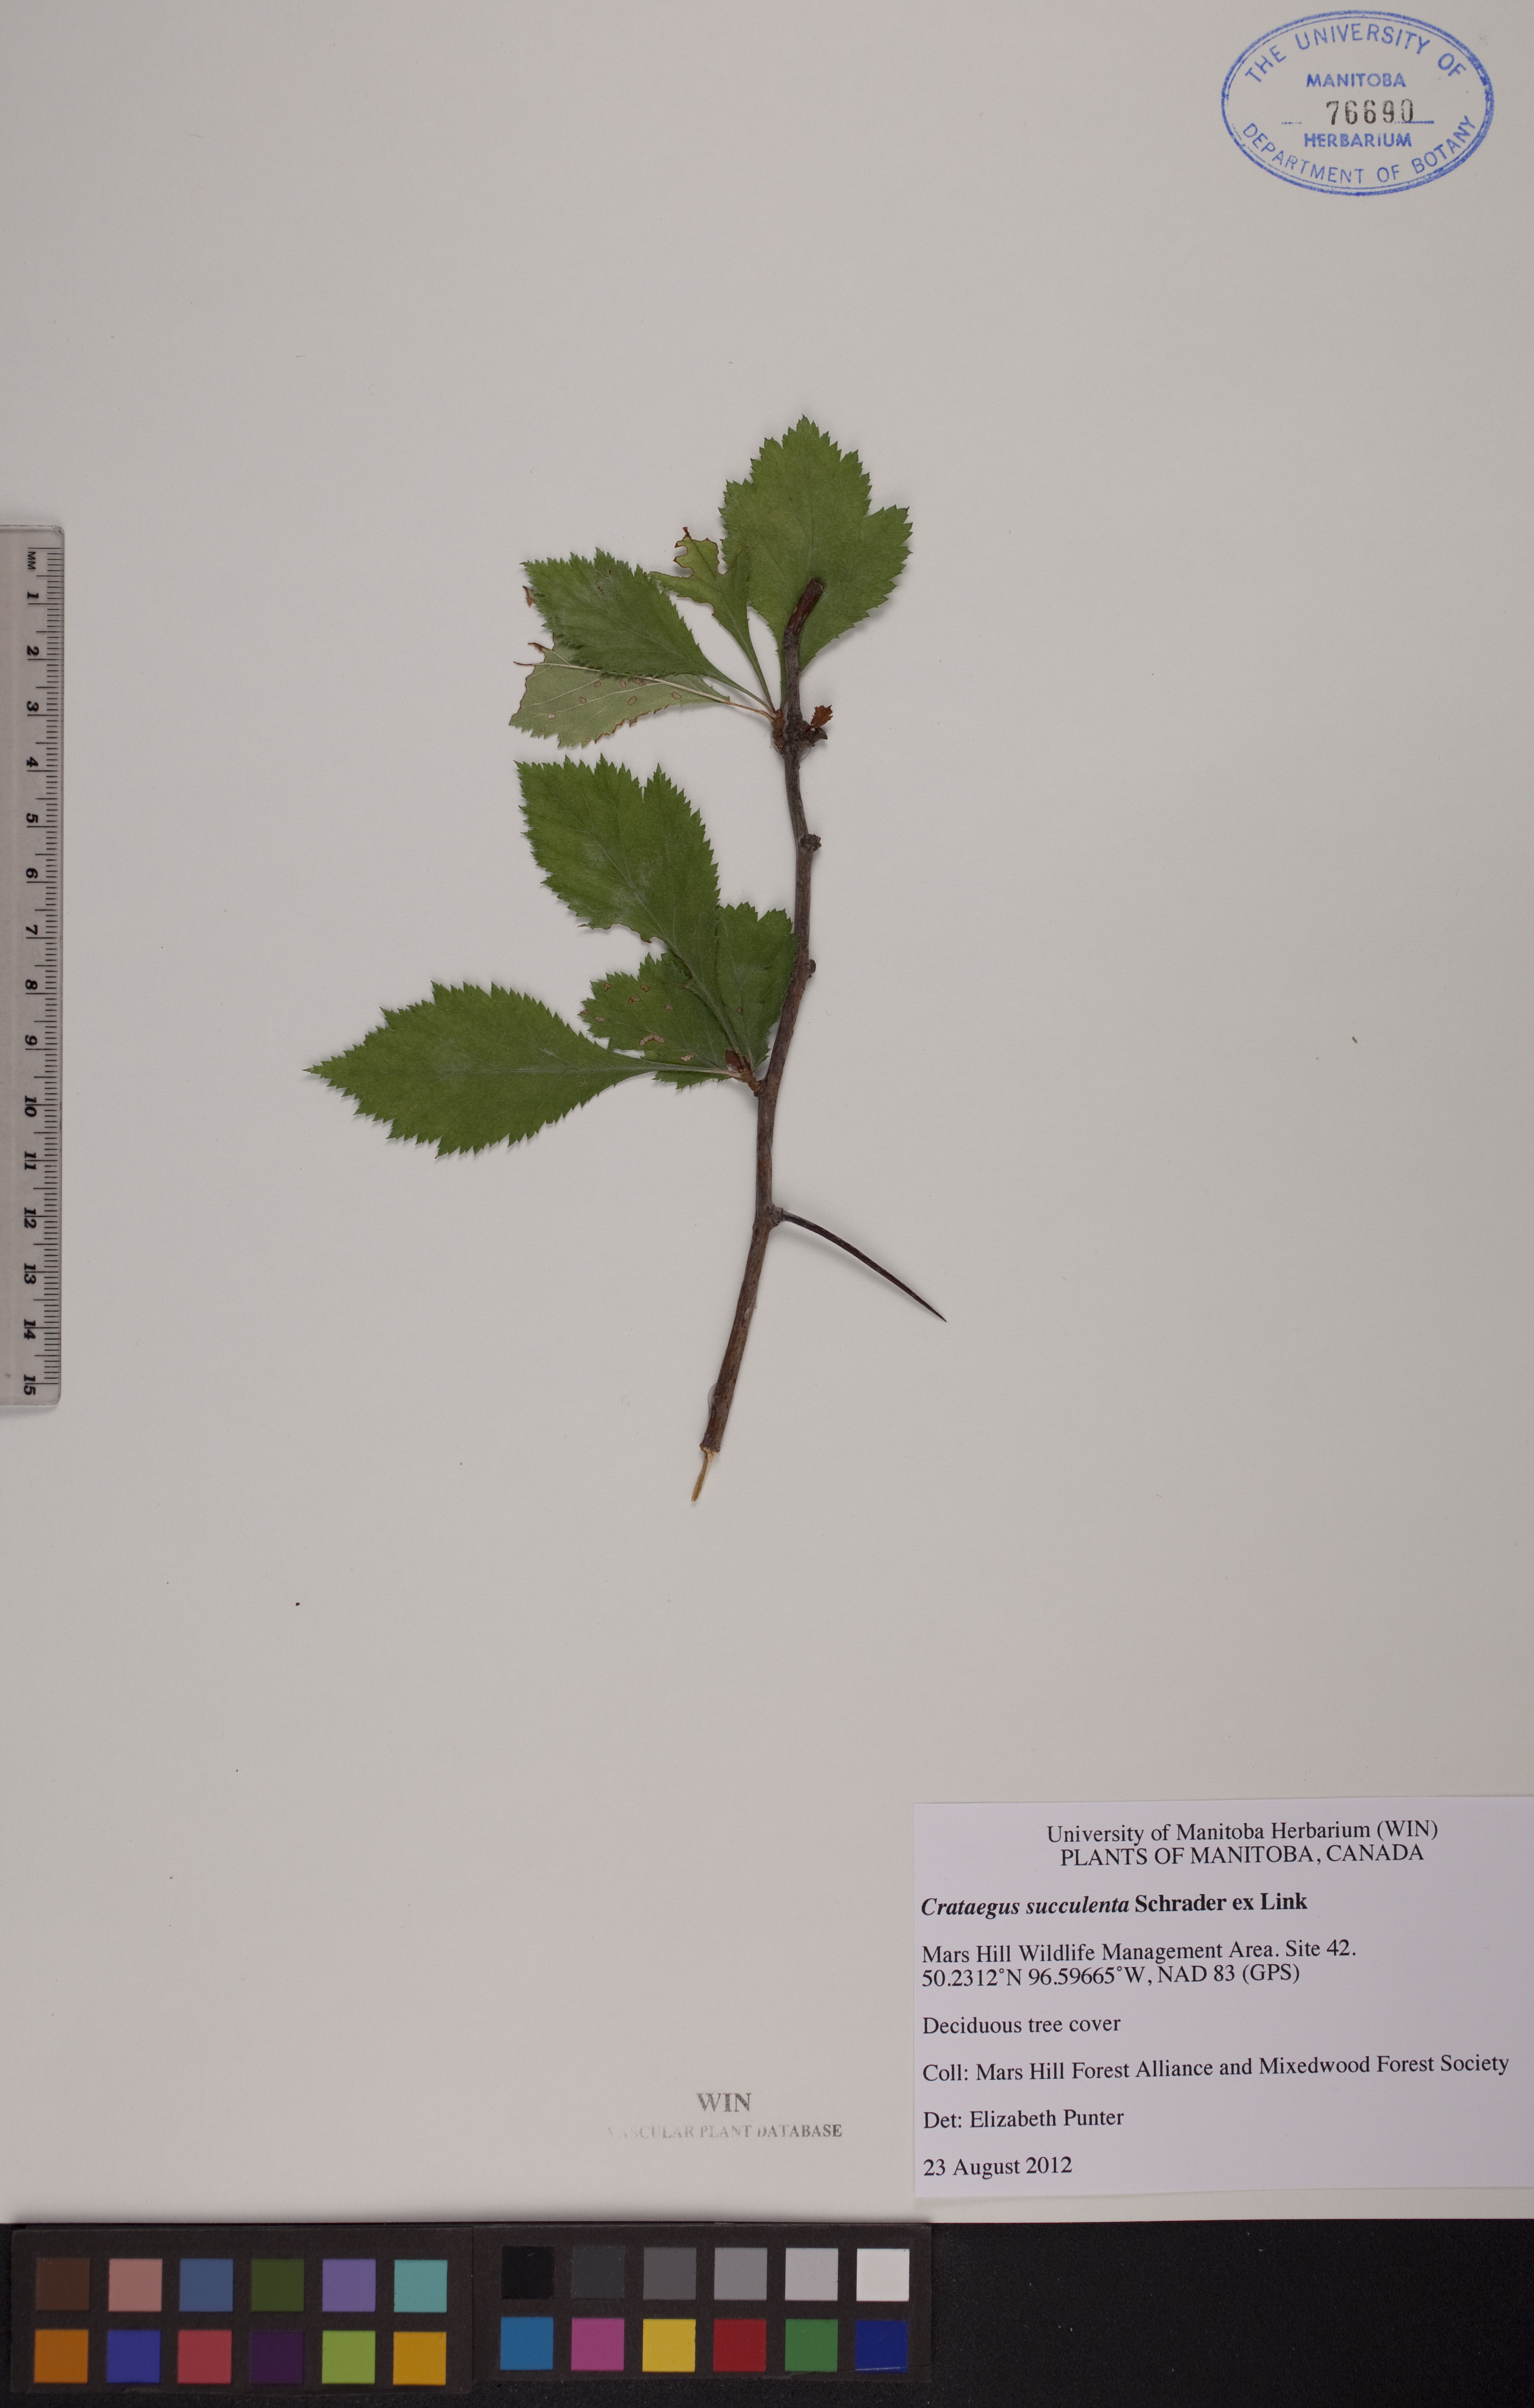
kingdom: Plantae
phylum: Tracheophyta
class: Magnoliopsida
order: Rosales
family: Rosaceae
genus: Crataegus
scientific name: Crataegus succulenta
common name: Fleshy hawthorn
